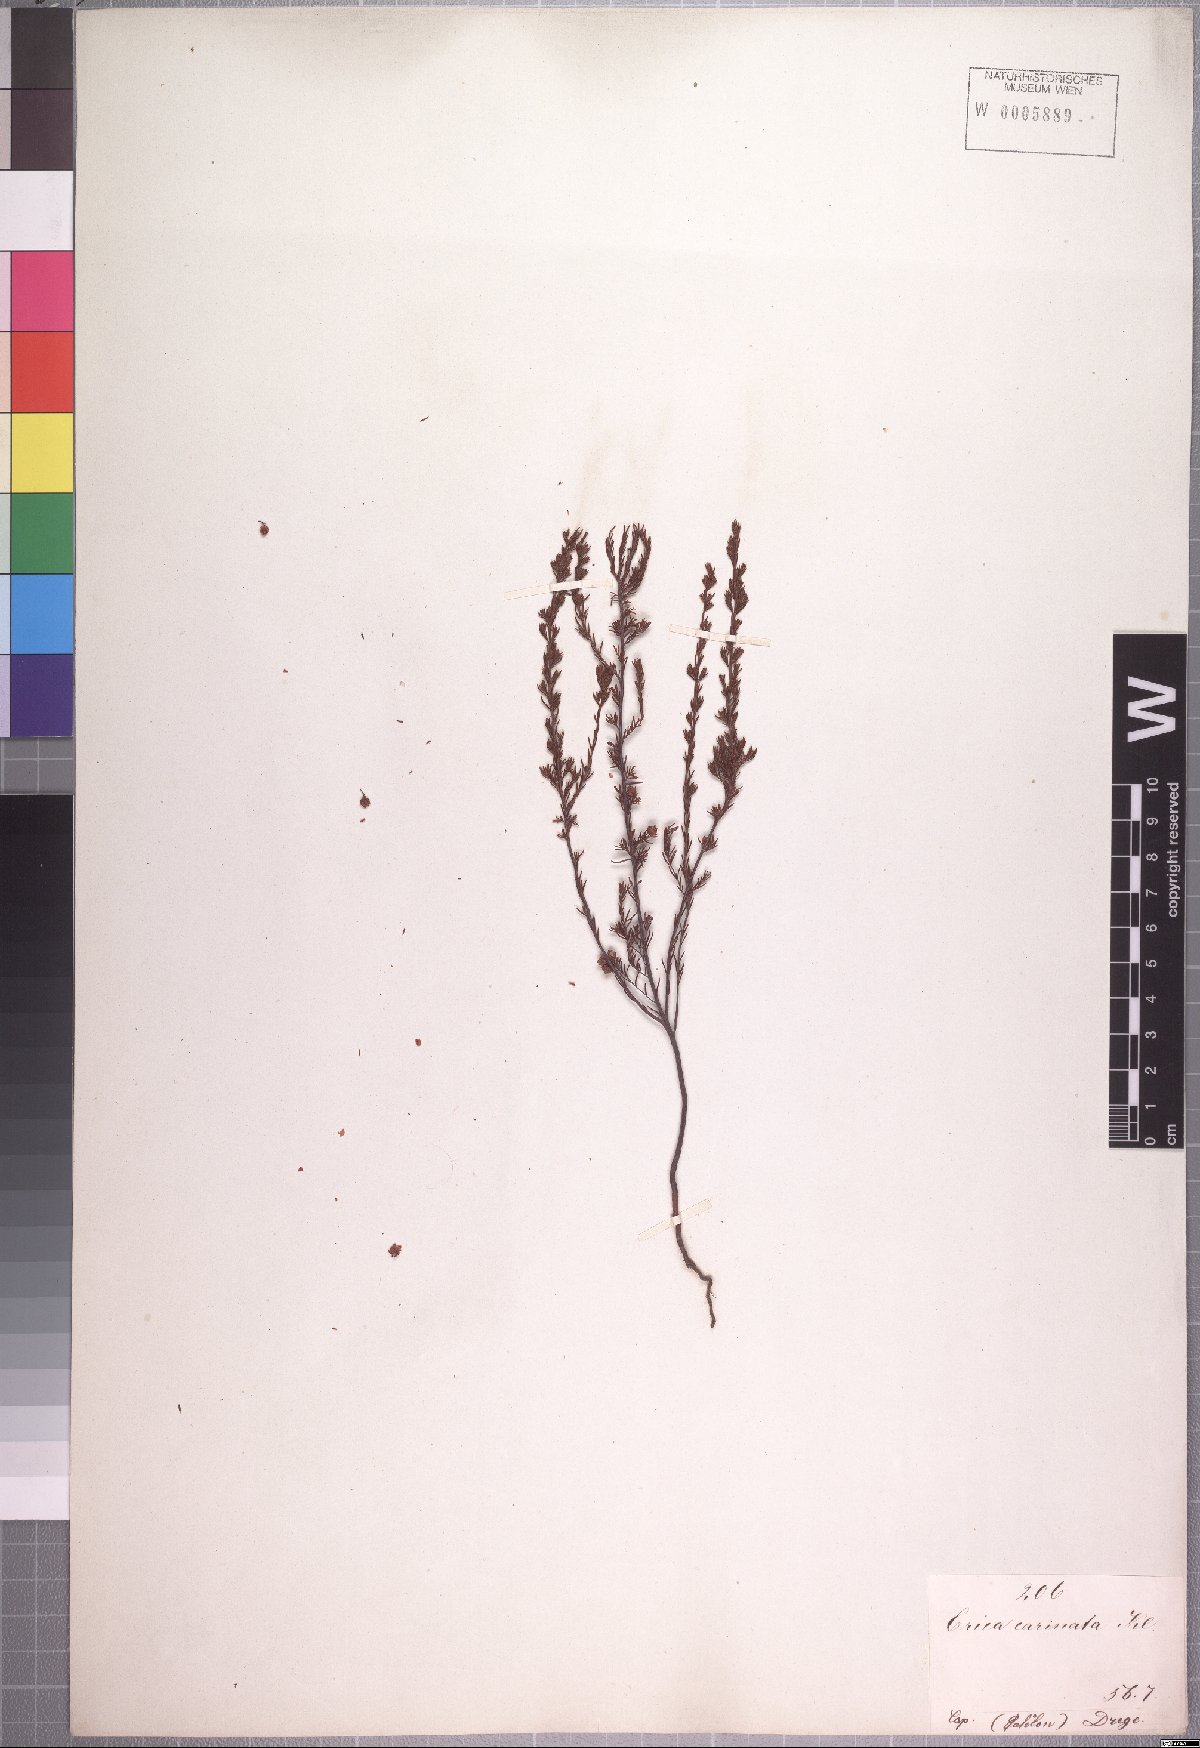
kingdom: Plantae
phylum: Tracheophyta
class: Magnoliopsida
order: Ericales
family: Ericaceae
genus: Erica
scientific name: Erica atricha
